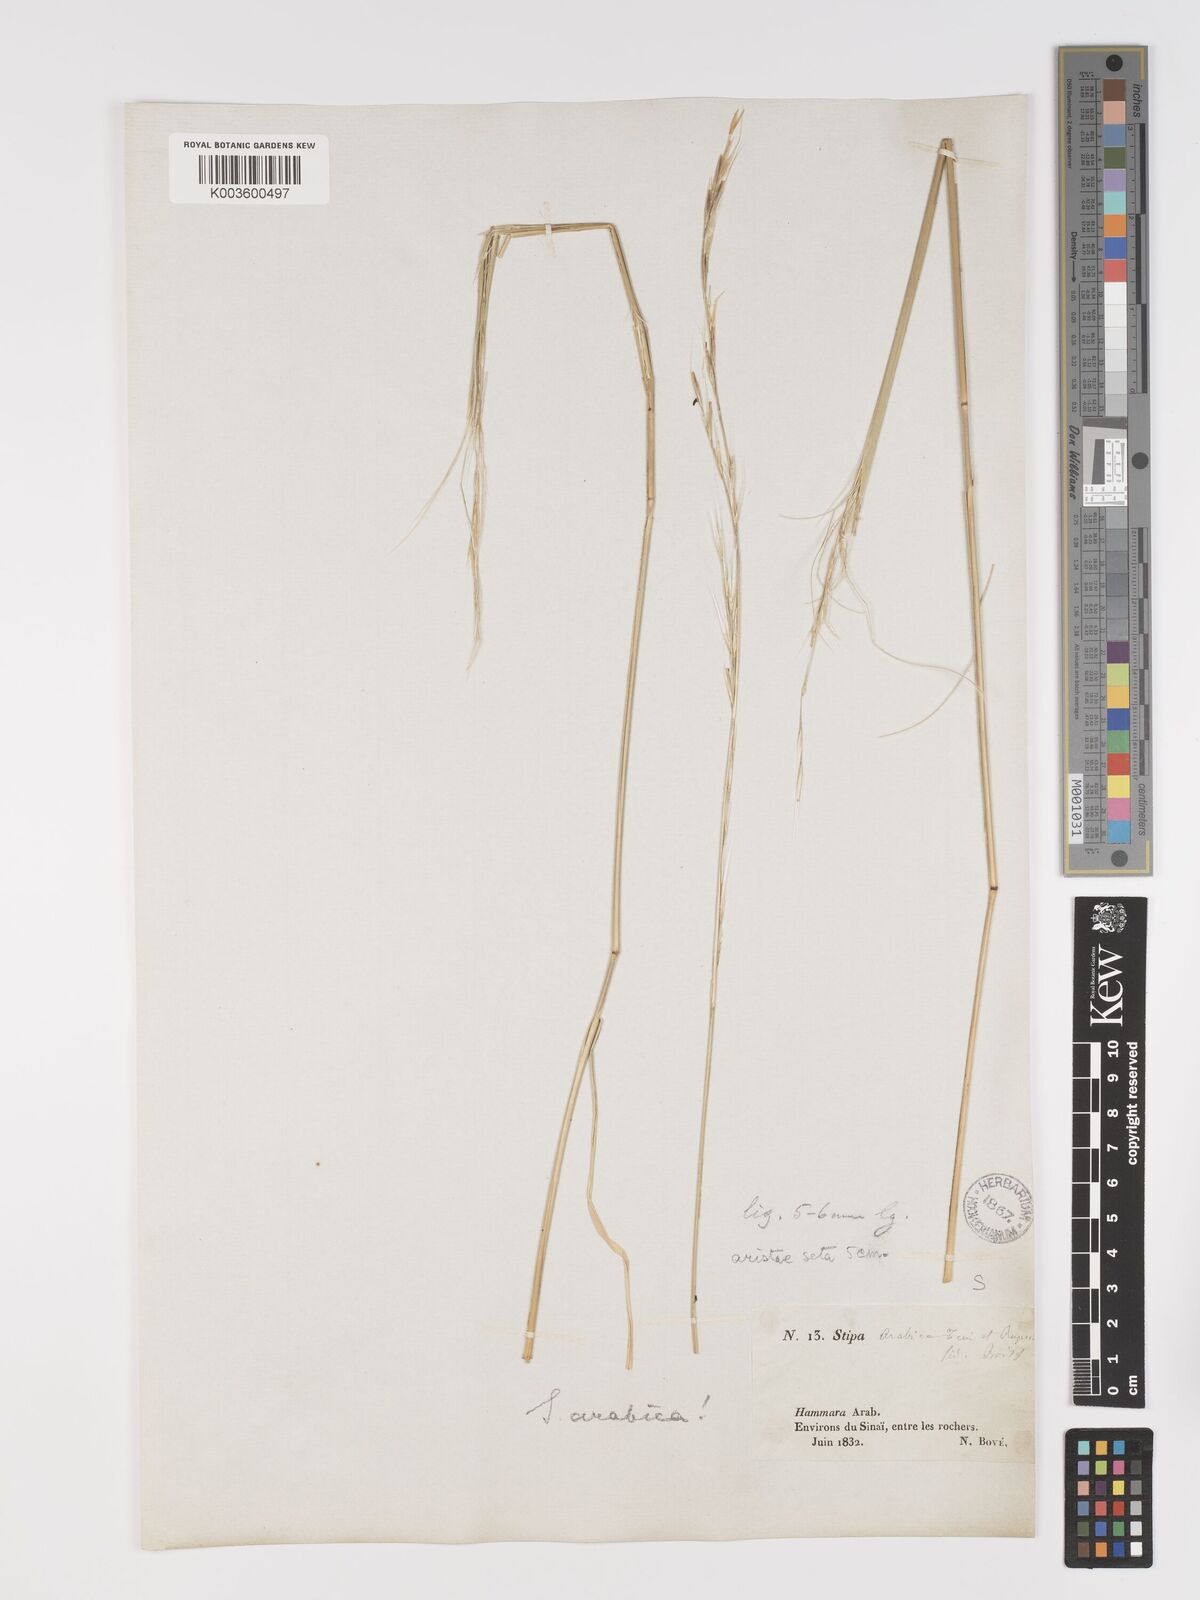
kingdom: Plantae
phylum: Tracheophyta
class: Liliopsida
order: Poales
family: Poaceae
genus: Stipa
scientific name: Stipa arabica
